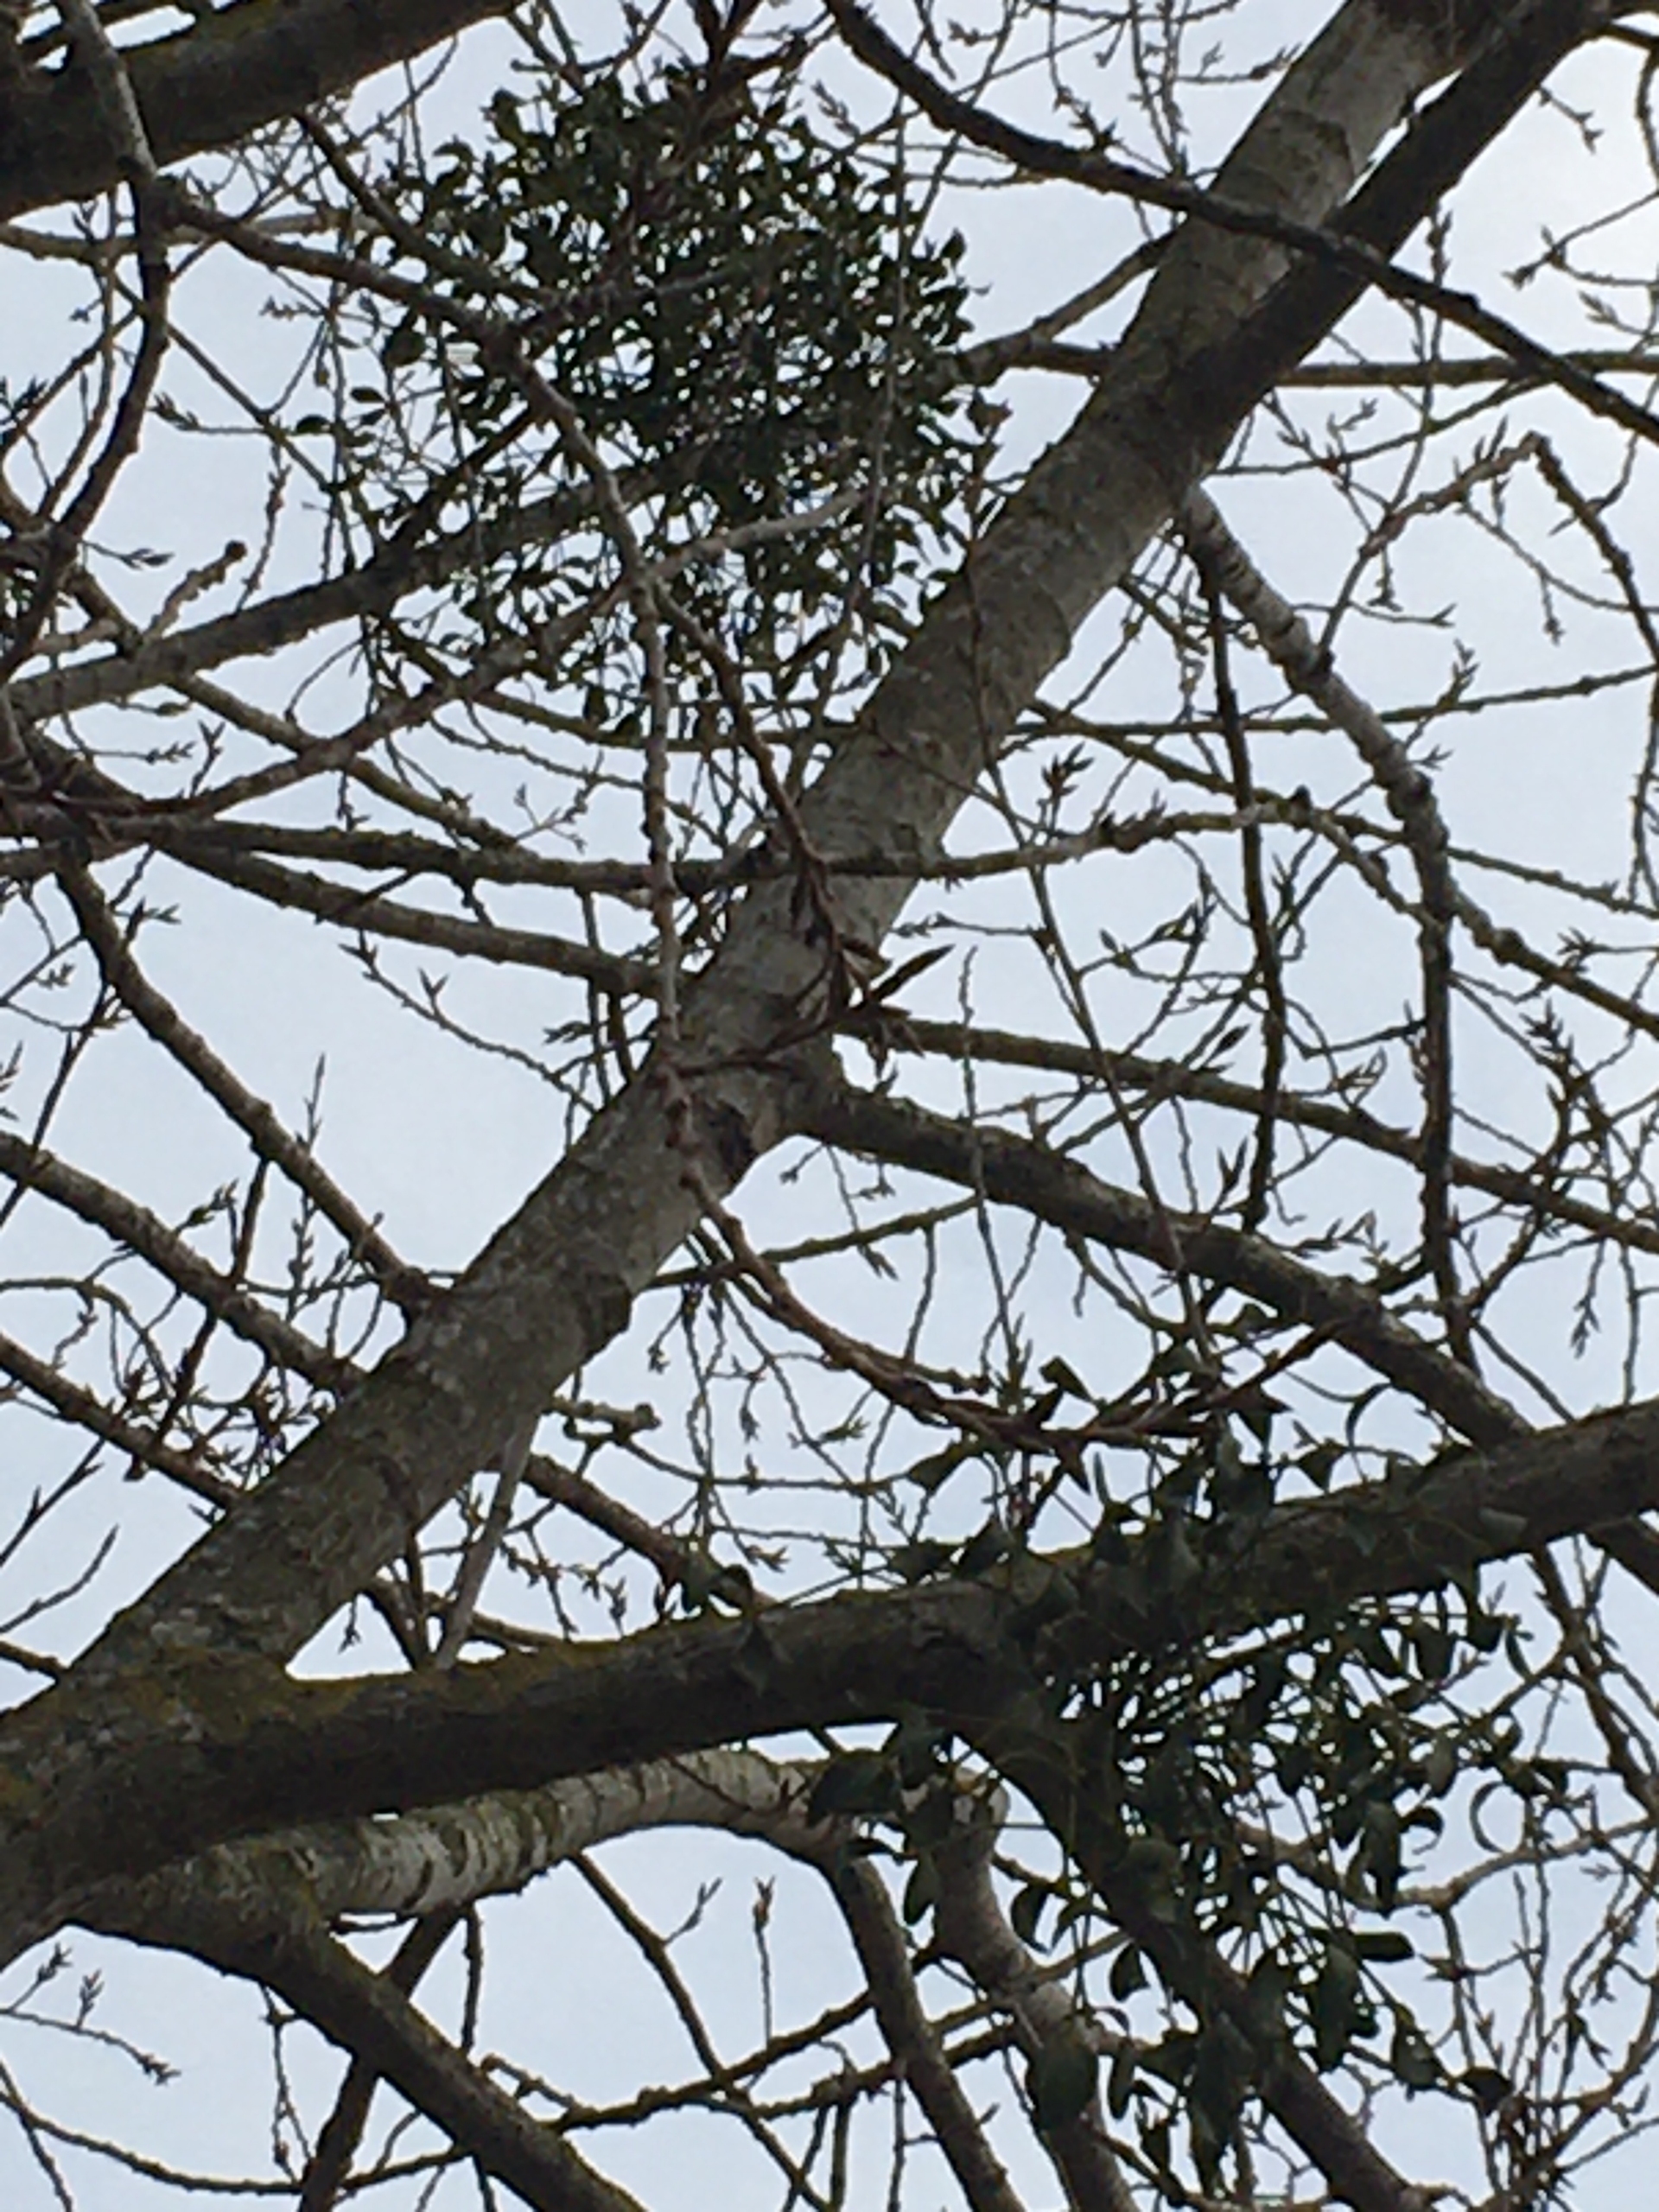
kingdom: Plantae
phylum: Tracheophyta
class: Magnoliopsida
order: Santalales
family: Viscaceae
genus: Viscum
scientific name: Viscum album
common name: Mistelten
